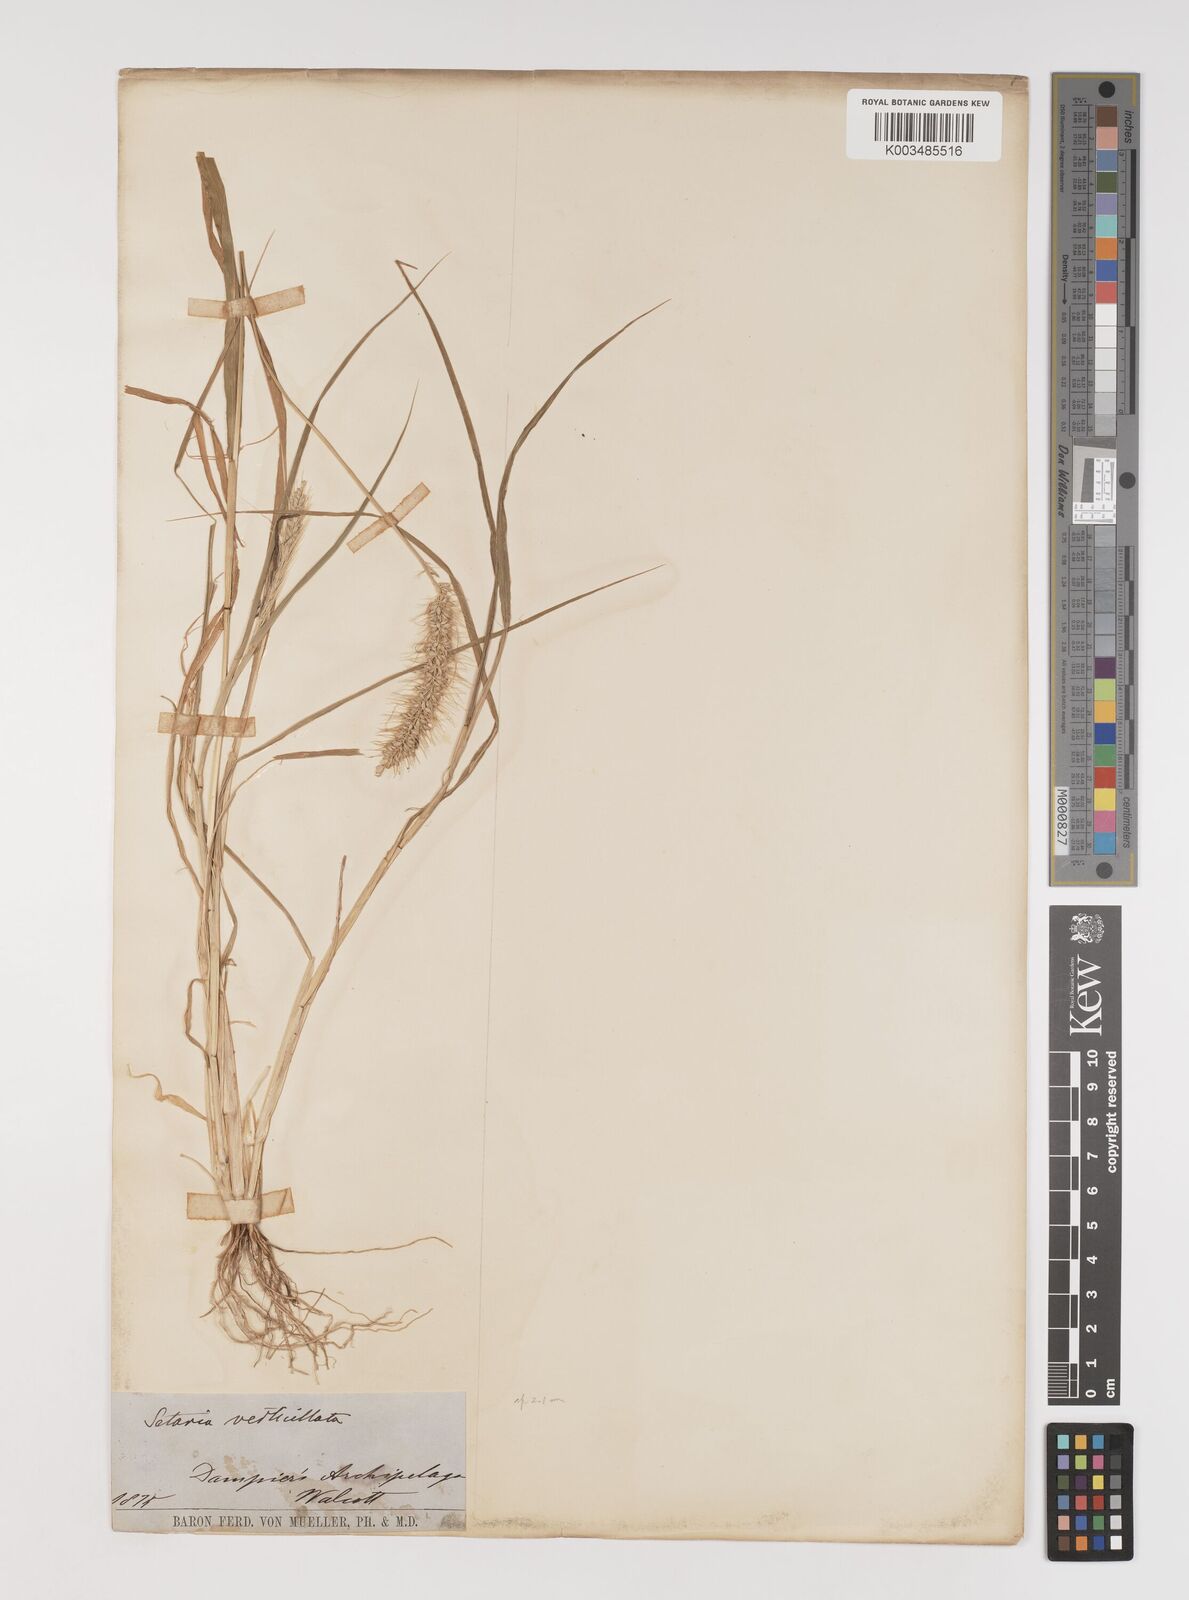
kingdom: Plantae
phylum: Tracheophyta
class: Liliopsida
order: Poales
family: Poaceae
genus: Setaria
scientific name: Setaria verticillata
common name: Hooked bristlegrass
